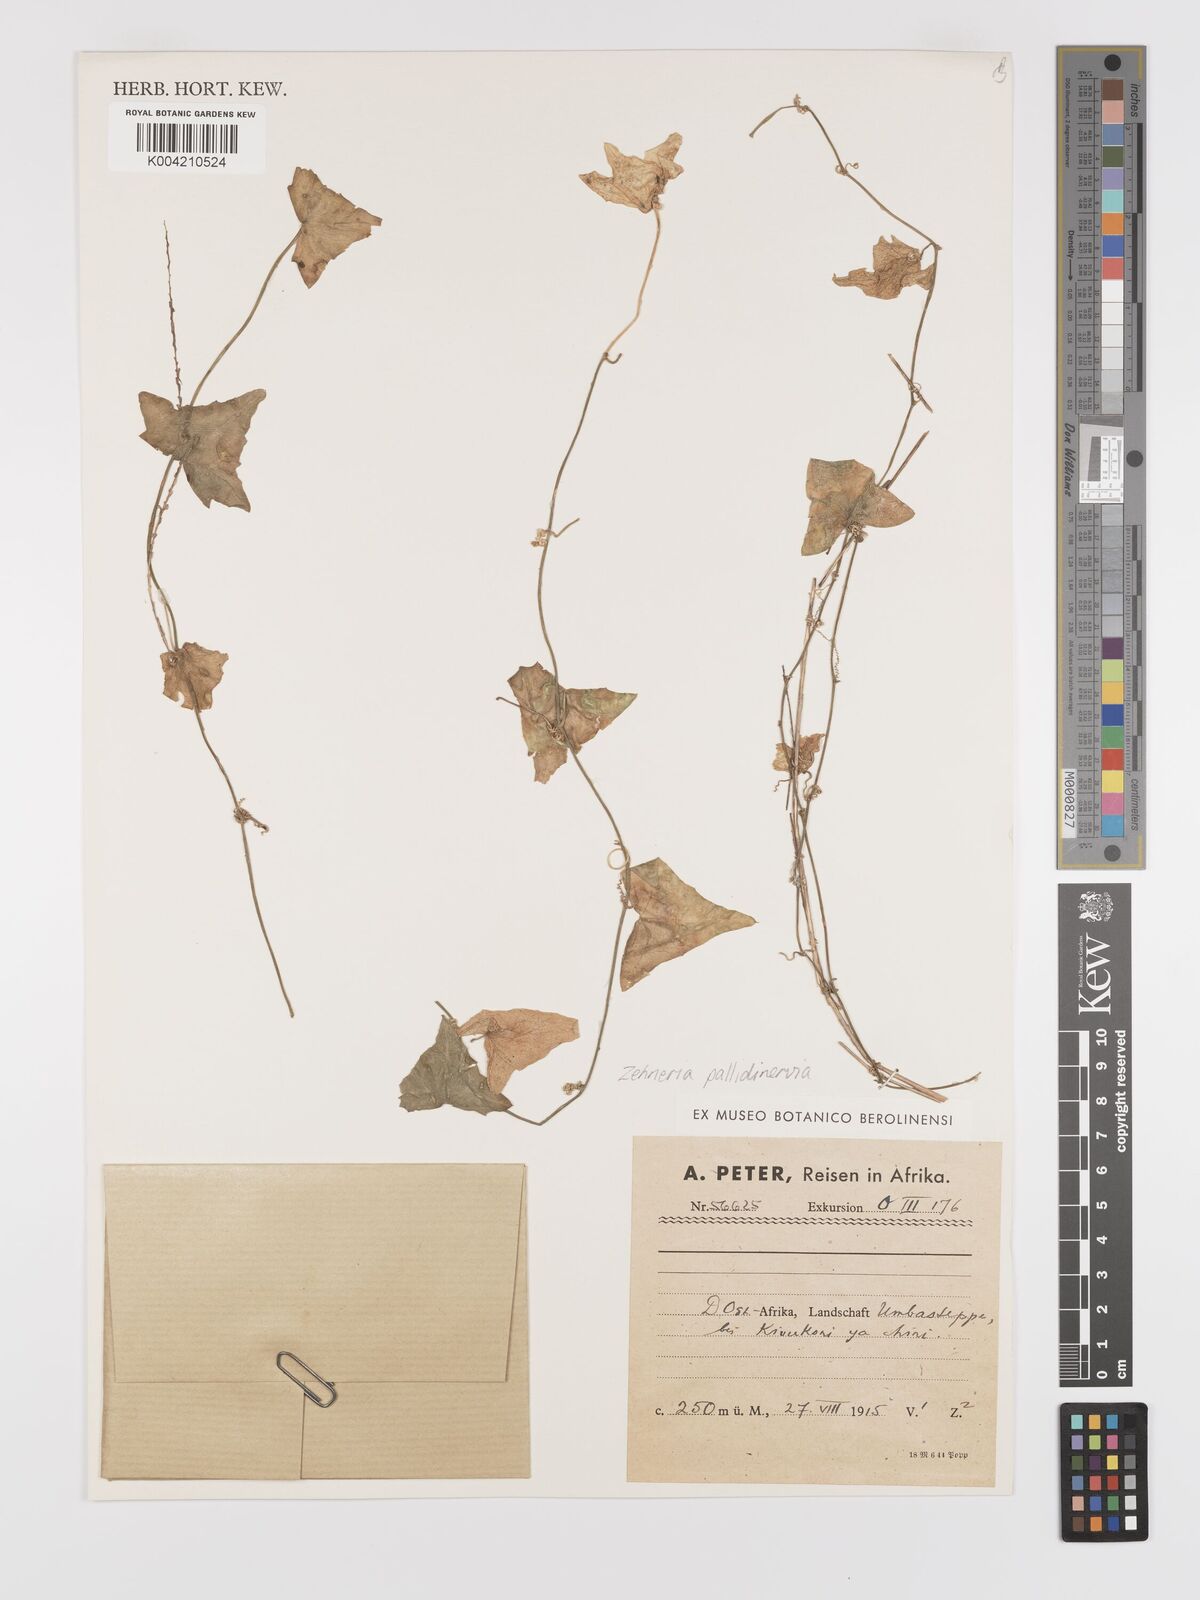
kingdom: Plantae
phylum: Tracheophyta
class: Magnoliopsida
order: Cucurbitales
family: Cucurbitaceae
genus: Zehneria
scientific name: Zehneria pallidinervia
